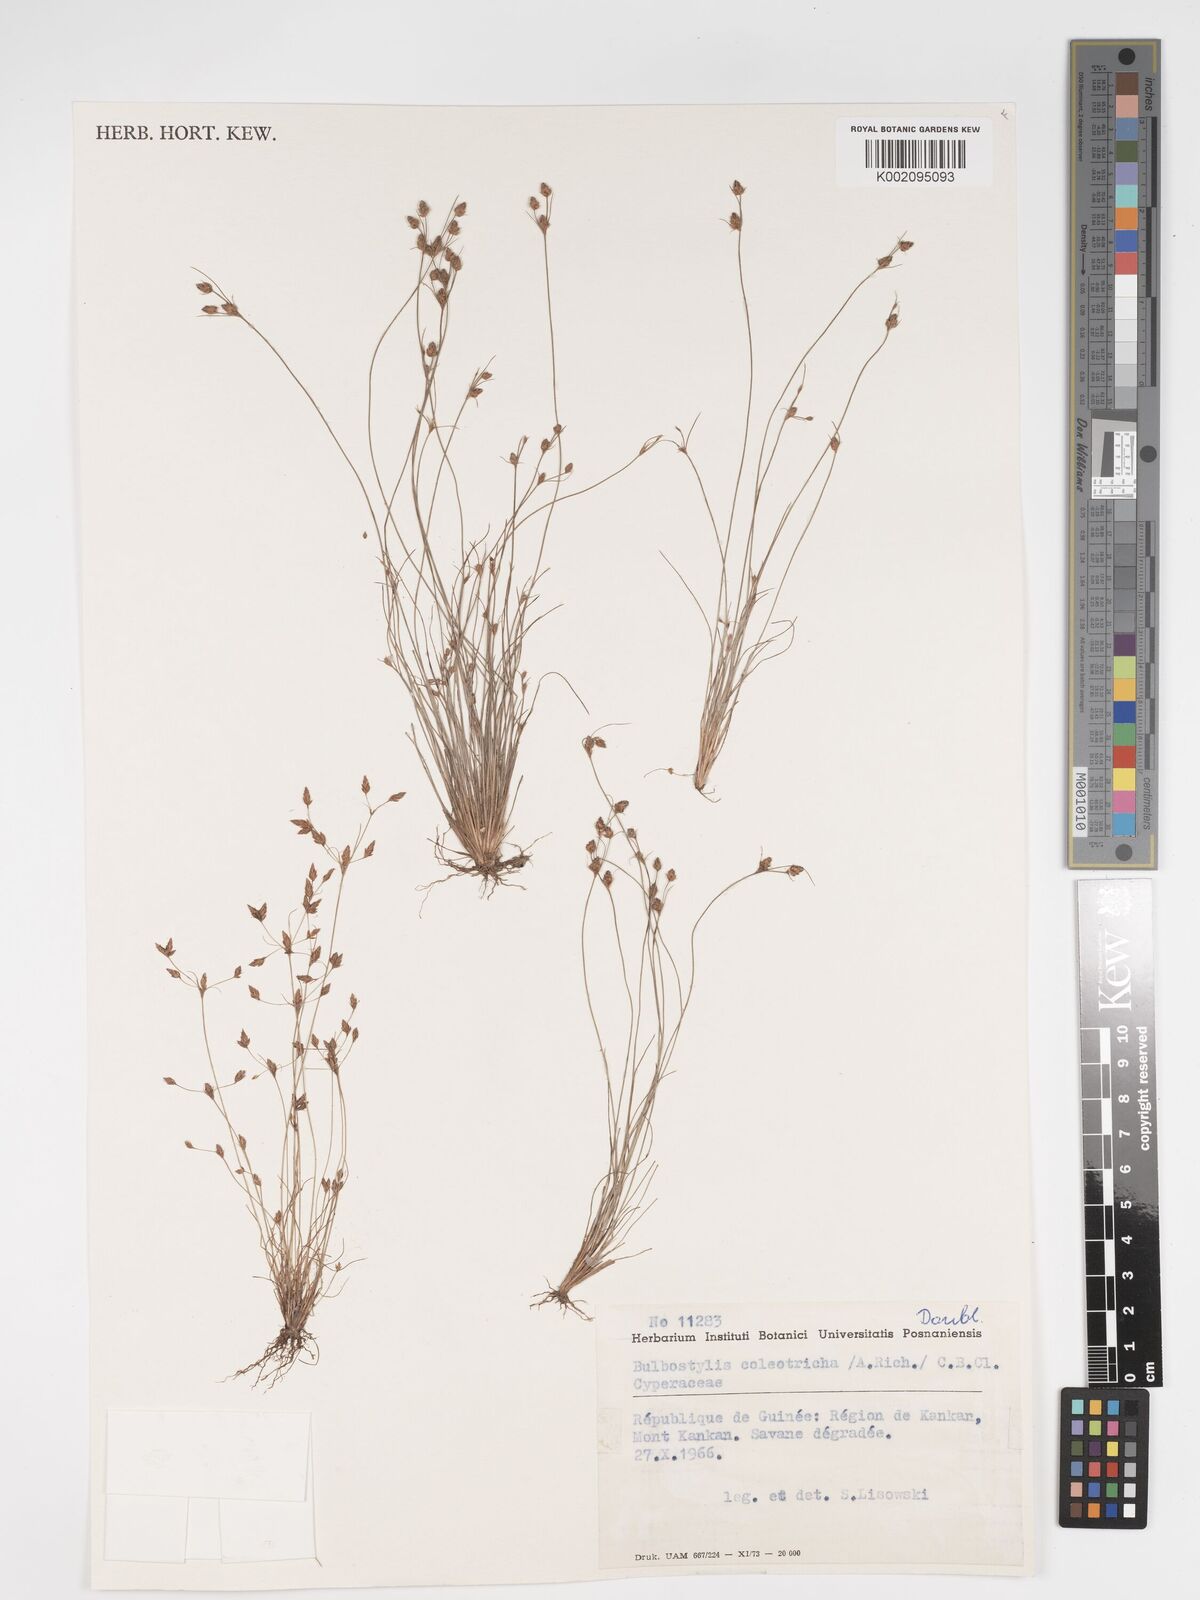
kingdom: Plantae
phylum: Tracheophyta
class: Liliopsida
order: Poales
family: Cyperaceae
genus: Bulbostylis
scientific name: Bulbostylis coleotricha
